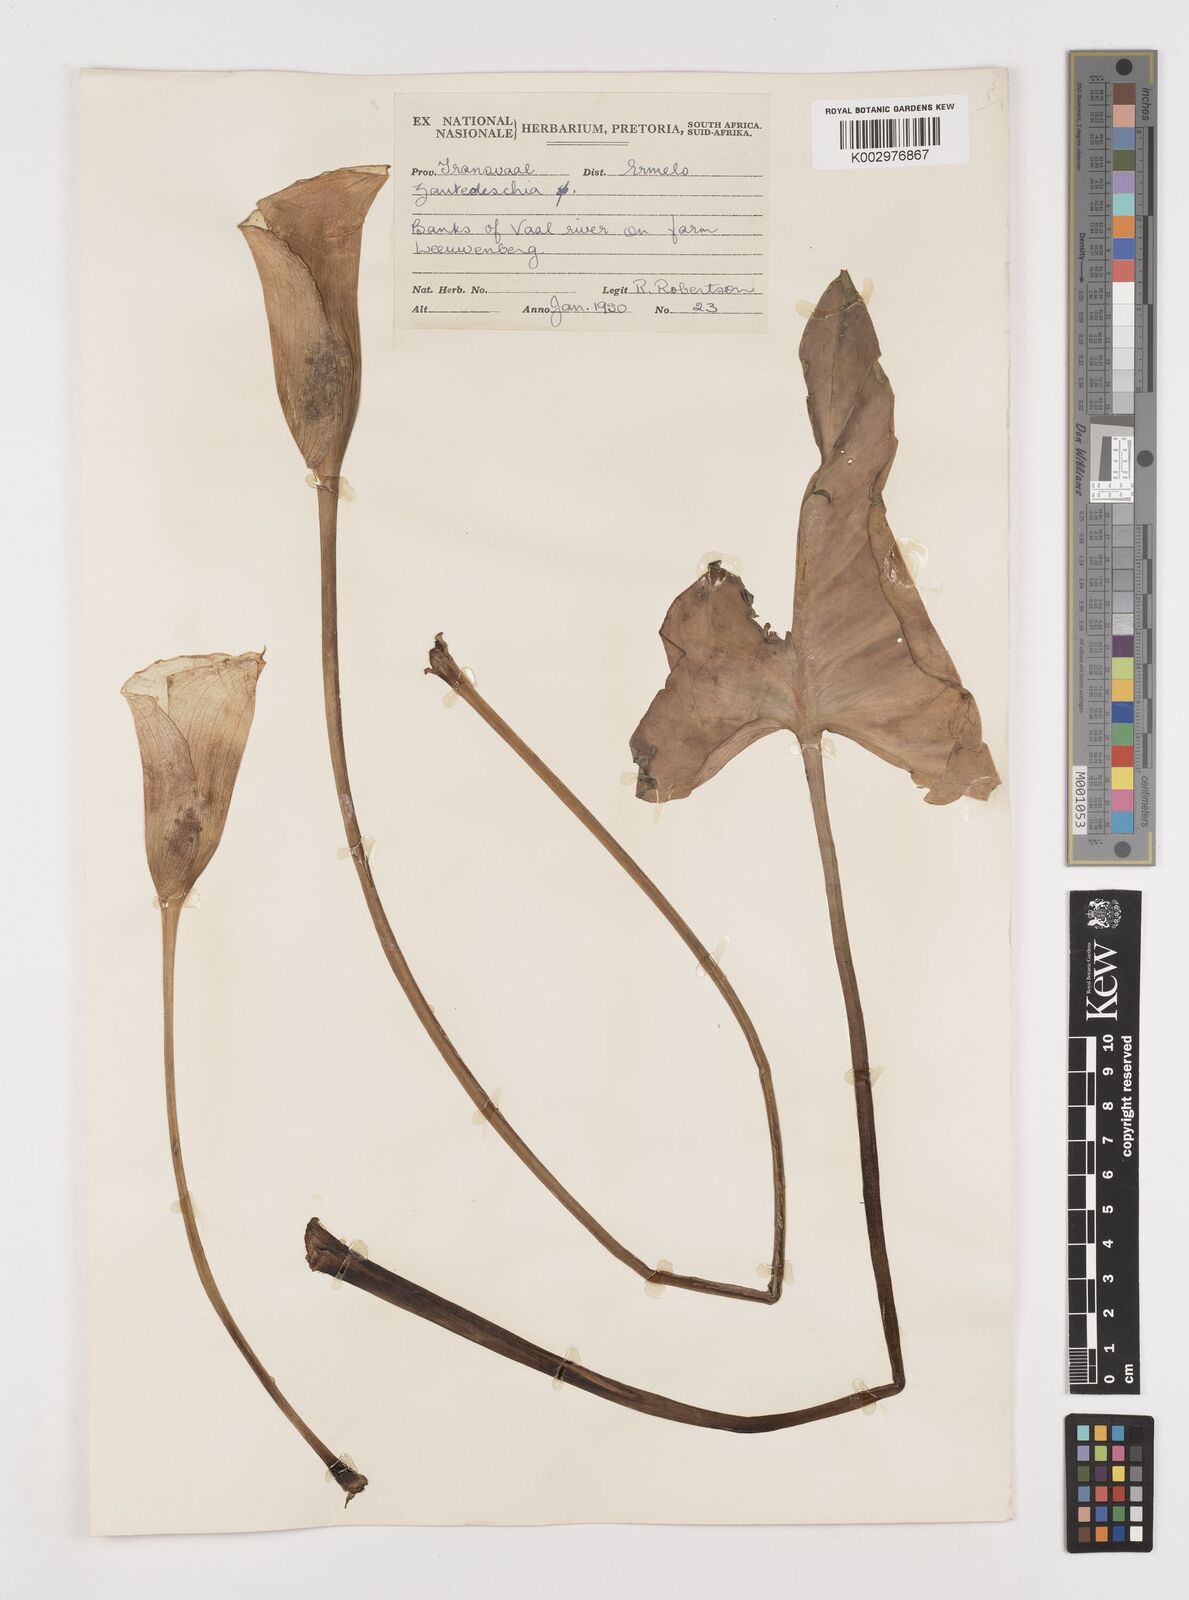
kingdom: Plantae
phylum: Tracheophyta
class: Liliopsida
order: Alismatales
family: Araceae
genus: Zantedeschia
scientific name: Zantedeschia albomaculata
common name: Spotted calla lily
